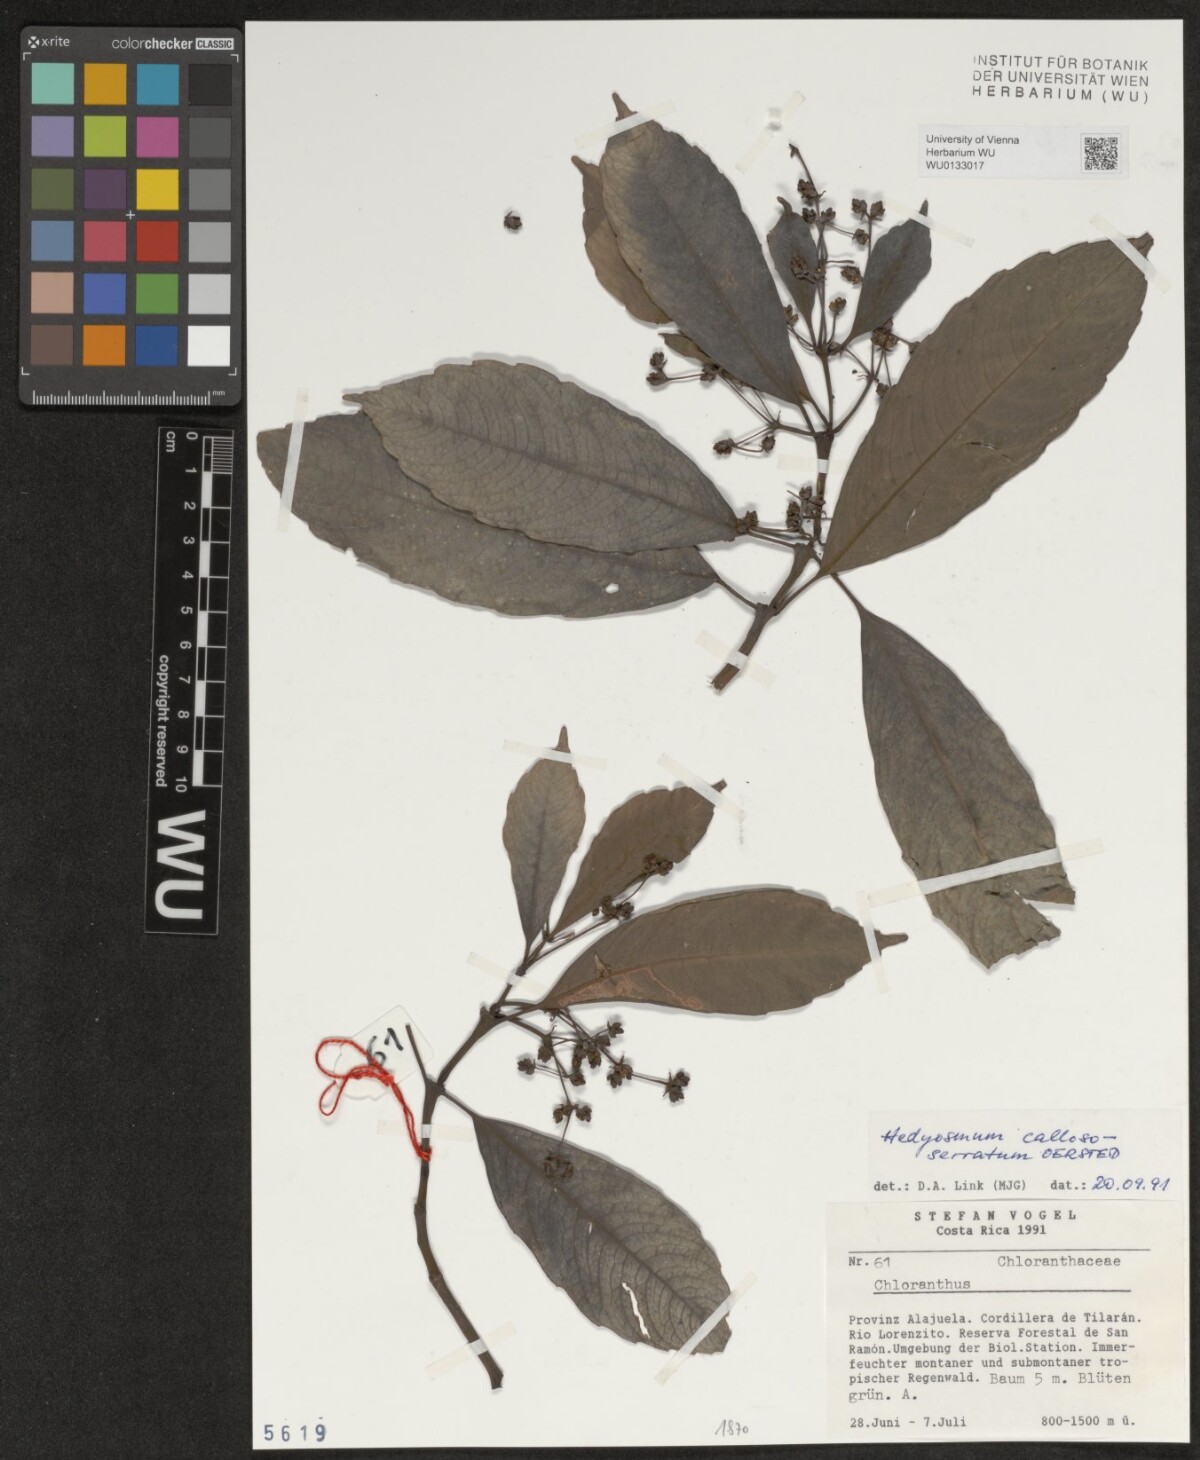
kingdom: Plantae
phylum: Tracheophyta
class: Magnoliopsida
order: Chloranthales
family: Chloranthaceae
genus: Hedyosmum
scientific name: Hedyosmum bonplandianum
